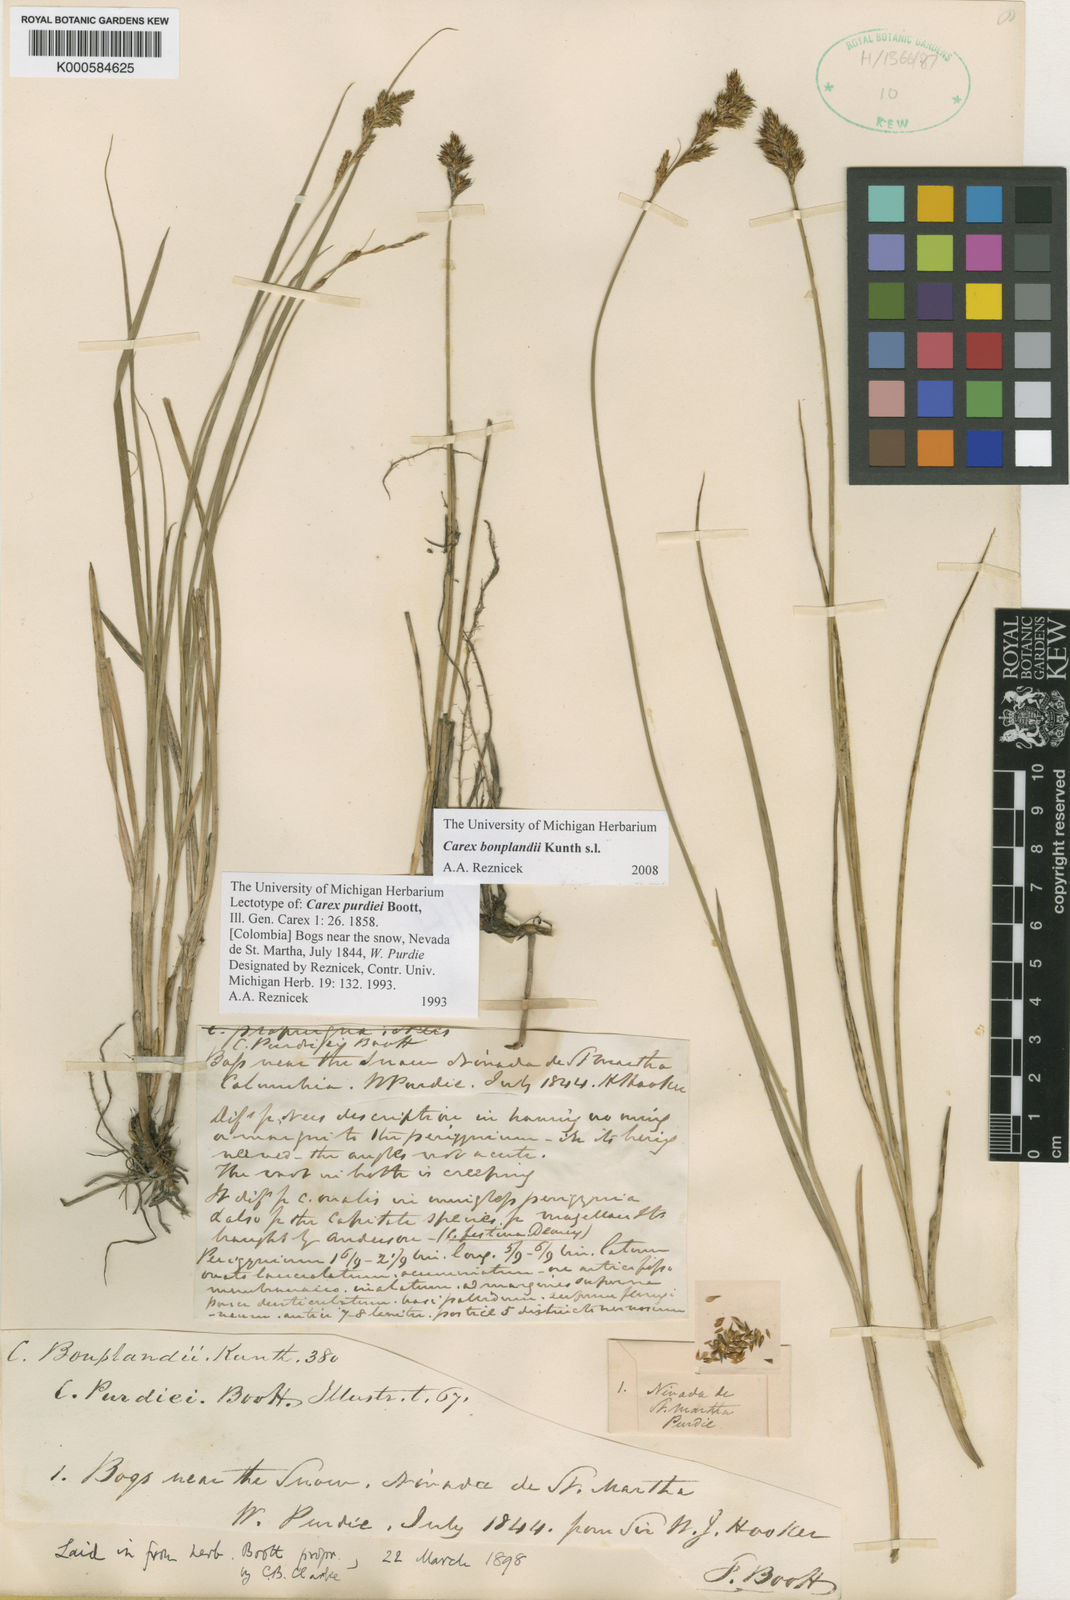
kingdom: Plantae
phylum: Tracheophyta
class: Liliopsida
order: Poales
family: Cyperaceae
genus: Carex
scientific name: Carex bonplandii
